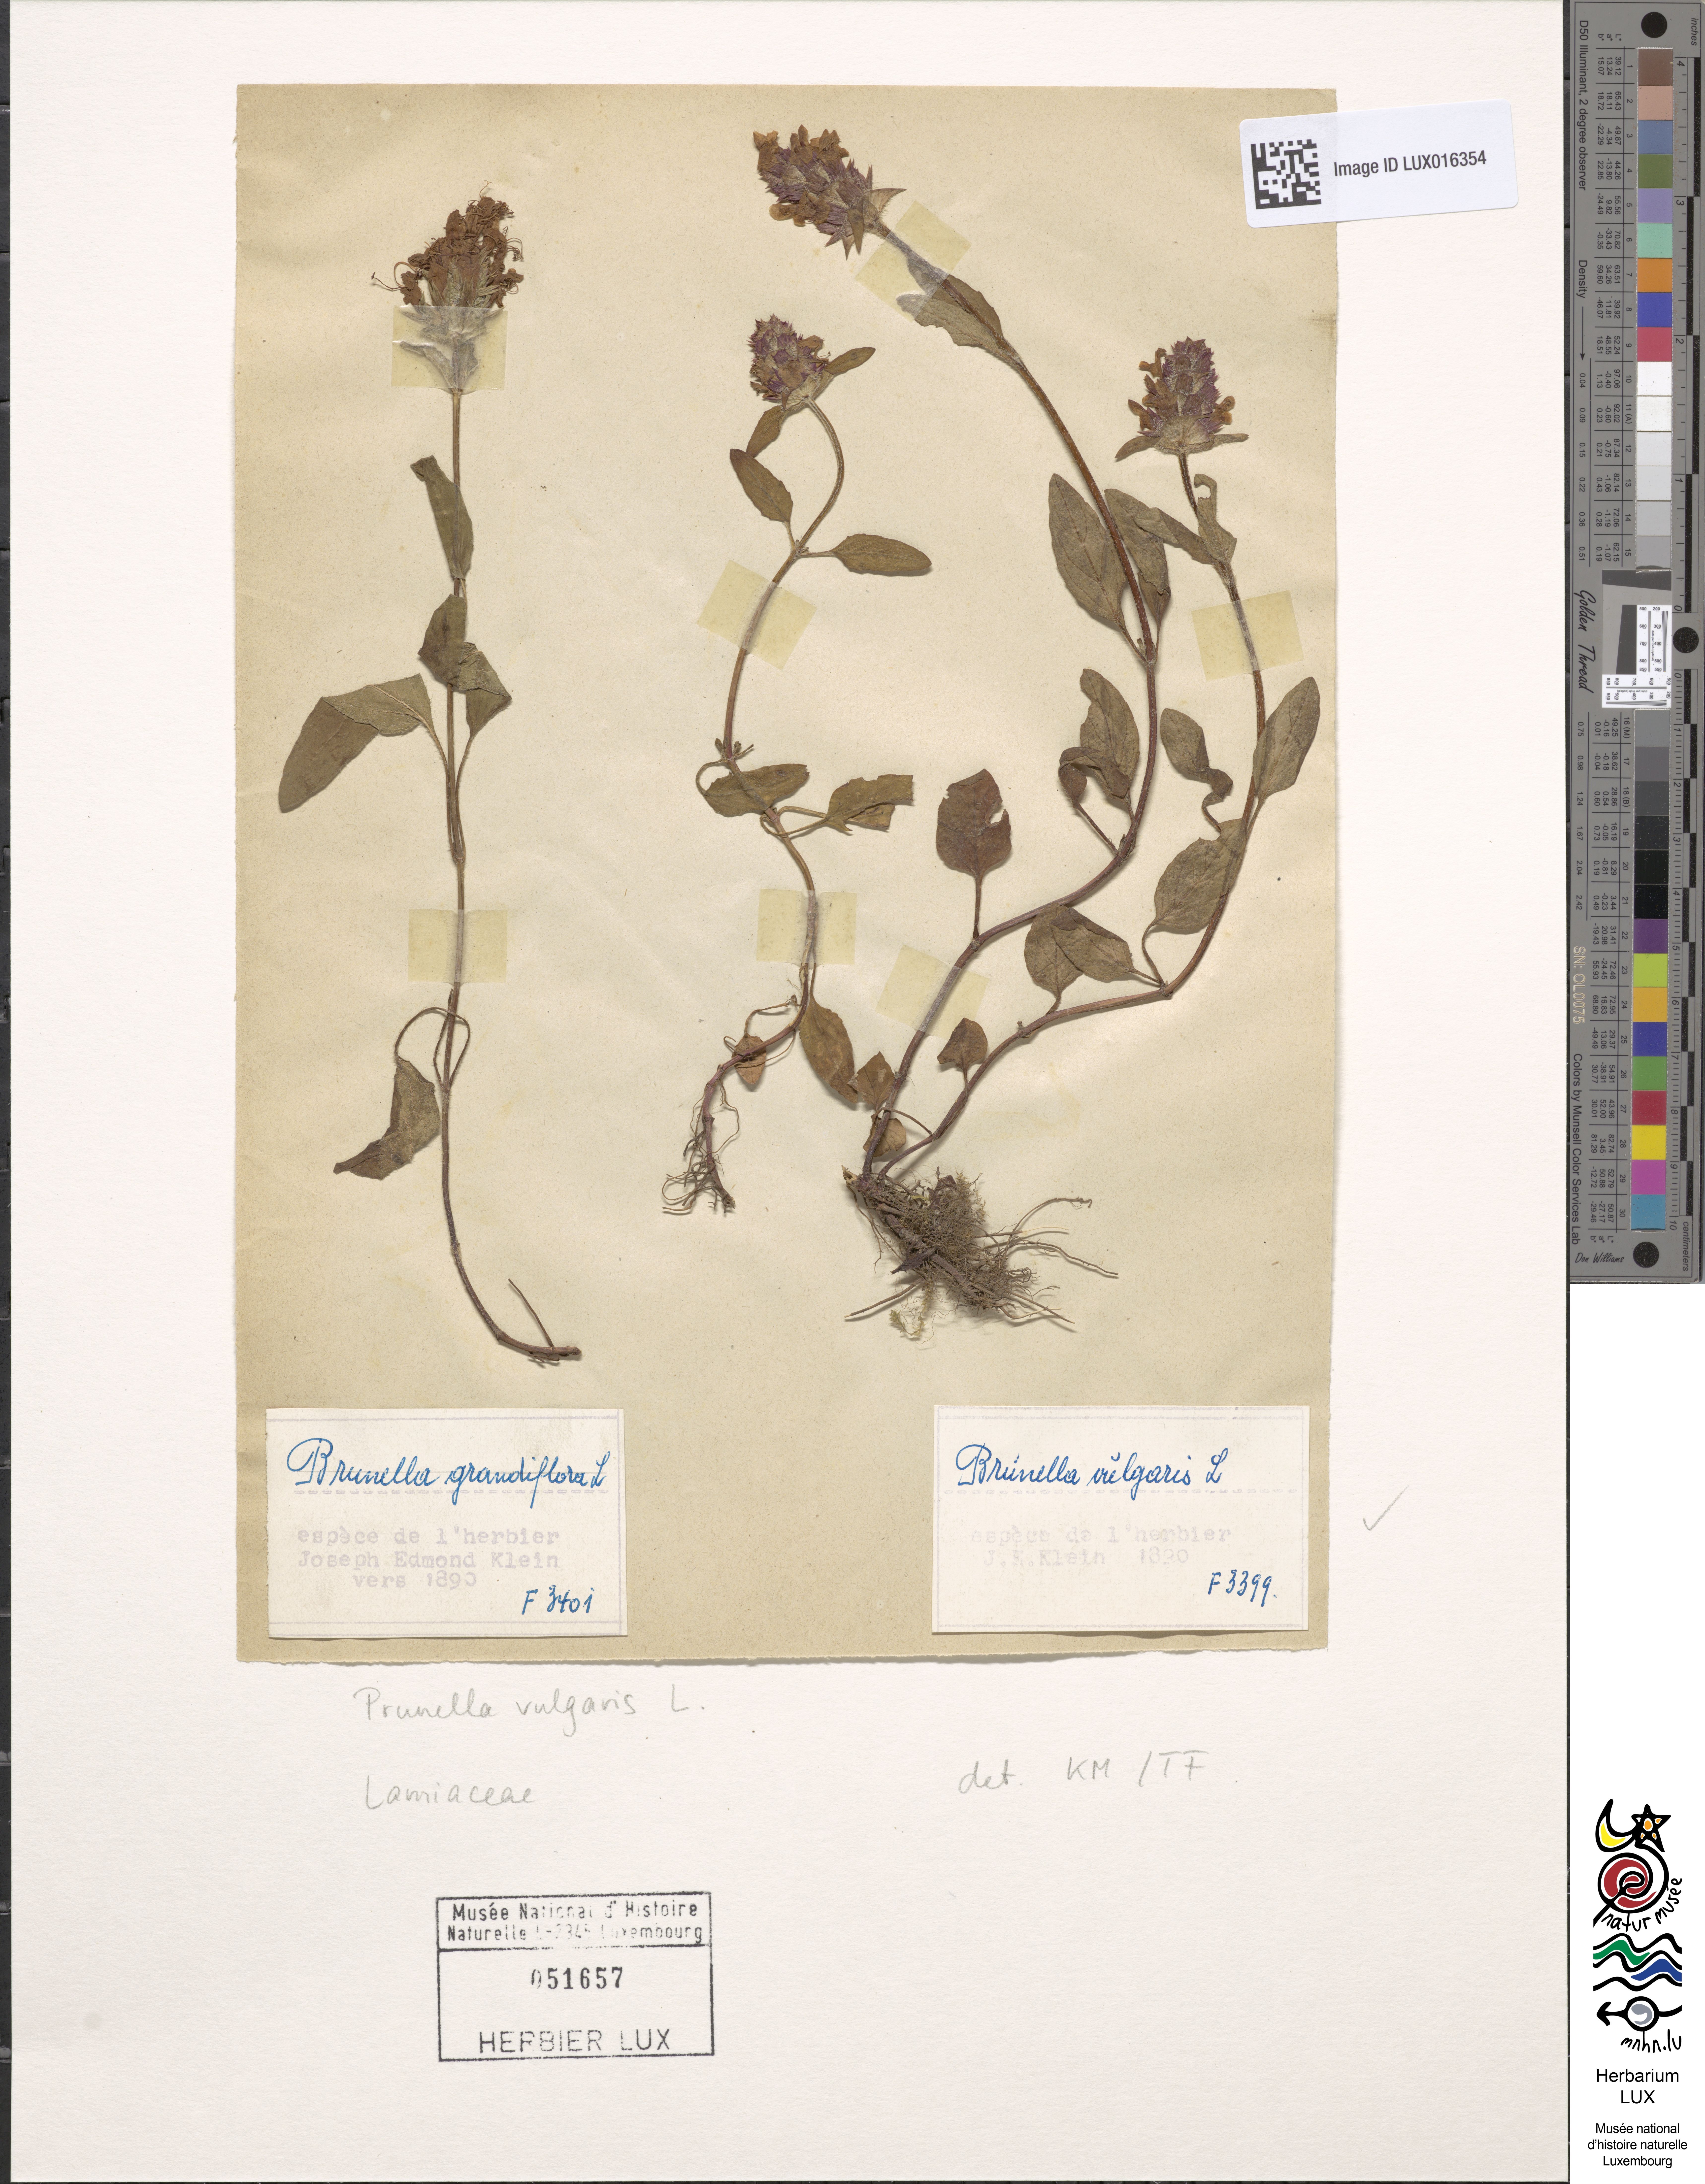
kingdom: Plantae
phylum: Tracheophyta
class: Magnoliopsida
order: Lamiales
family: Lamiaceae
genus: Prunella
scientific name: Prunella vulgaris
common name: Heal-all
